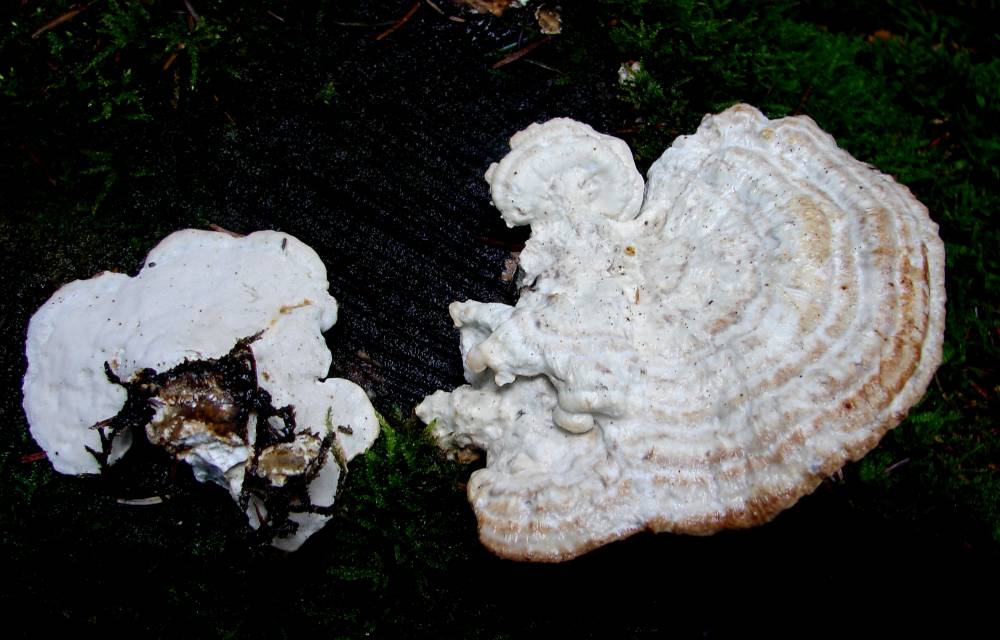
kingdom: Fungi
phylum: Basidiomycota
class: Agaricomycetes
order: Polyporales
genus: Calcipostia
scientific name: Calcipostia guttulata
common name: dråbe-kødporesvamp
